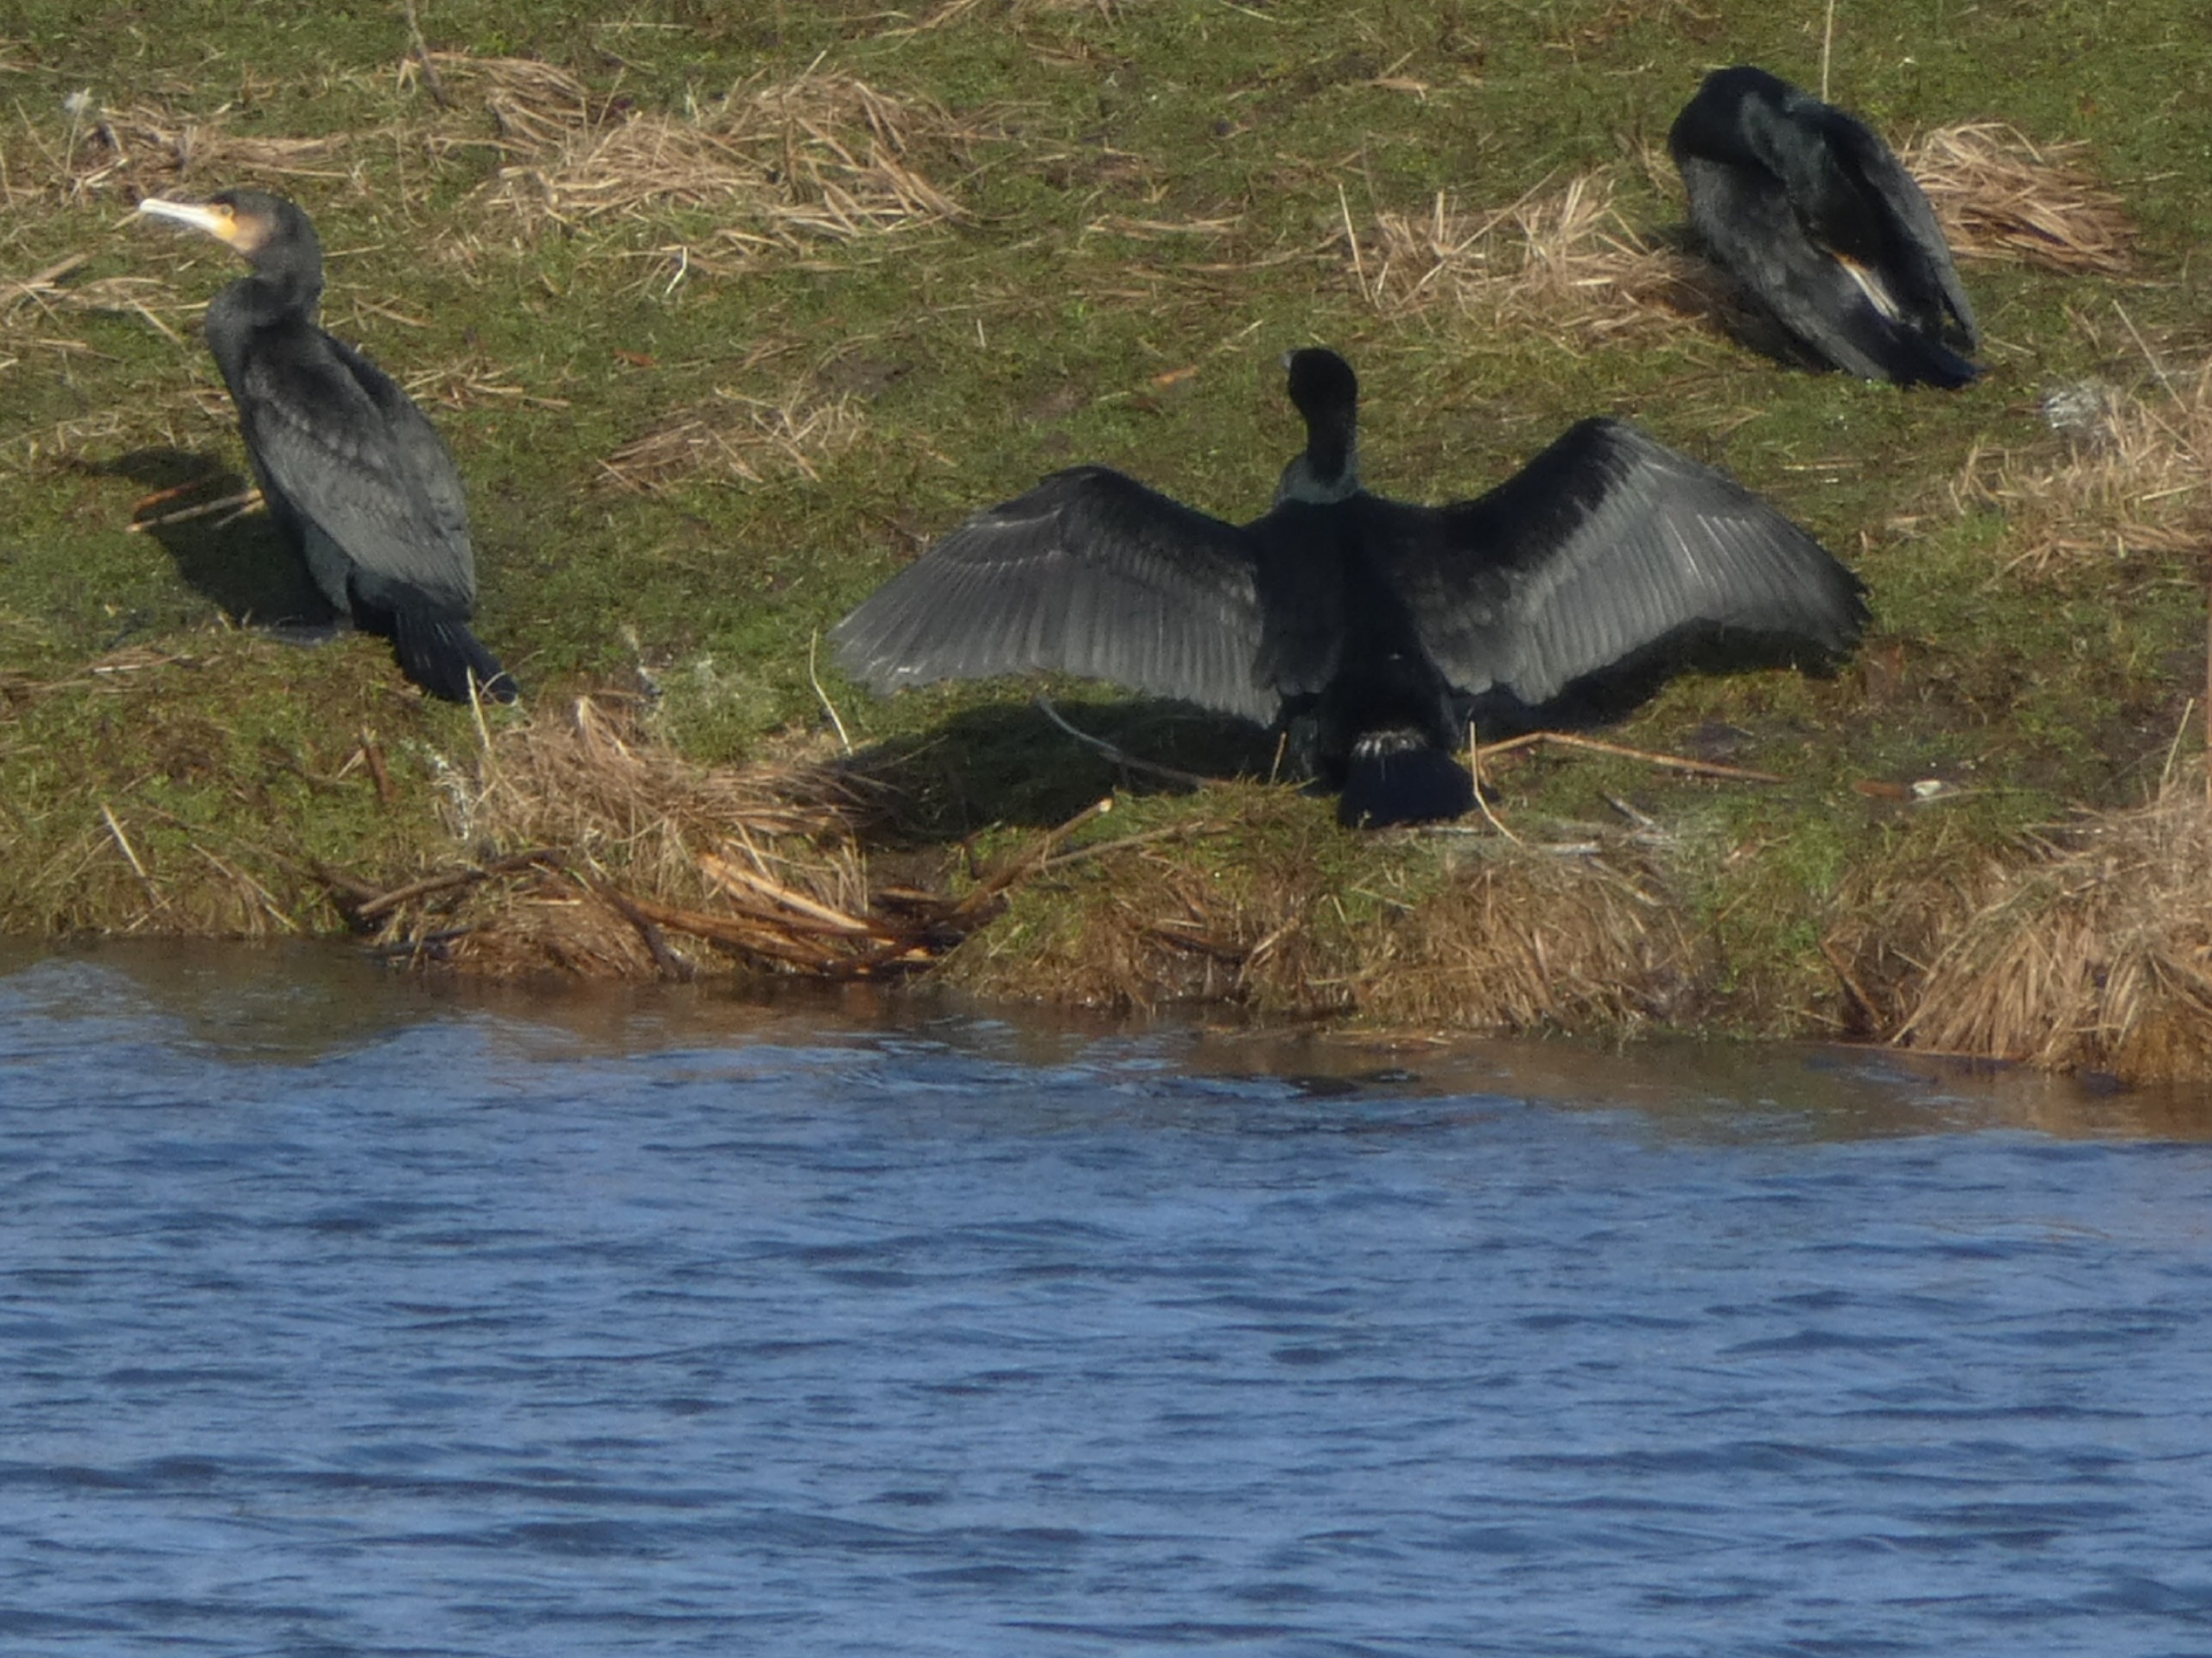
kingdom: Animalia
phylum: Chordata
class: Aves
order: Suliformes
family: Phalacrocoracidae
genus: Phalacrocorax
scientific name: Phalacrocorax carbo
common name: Skarv
